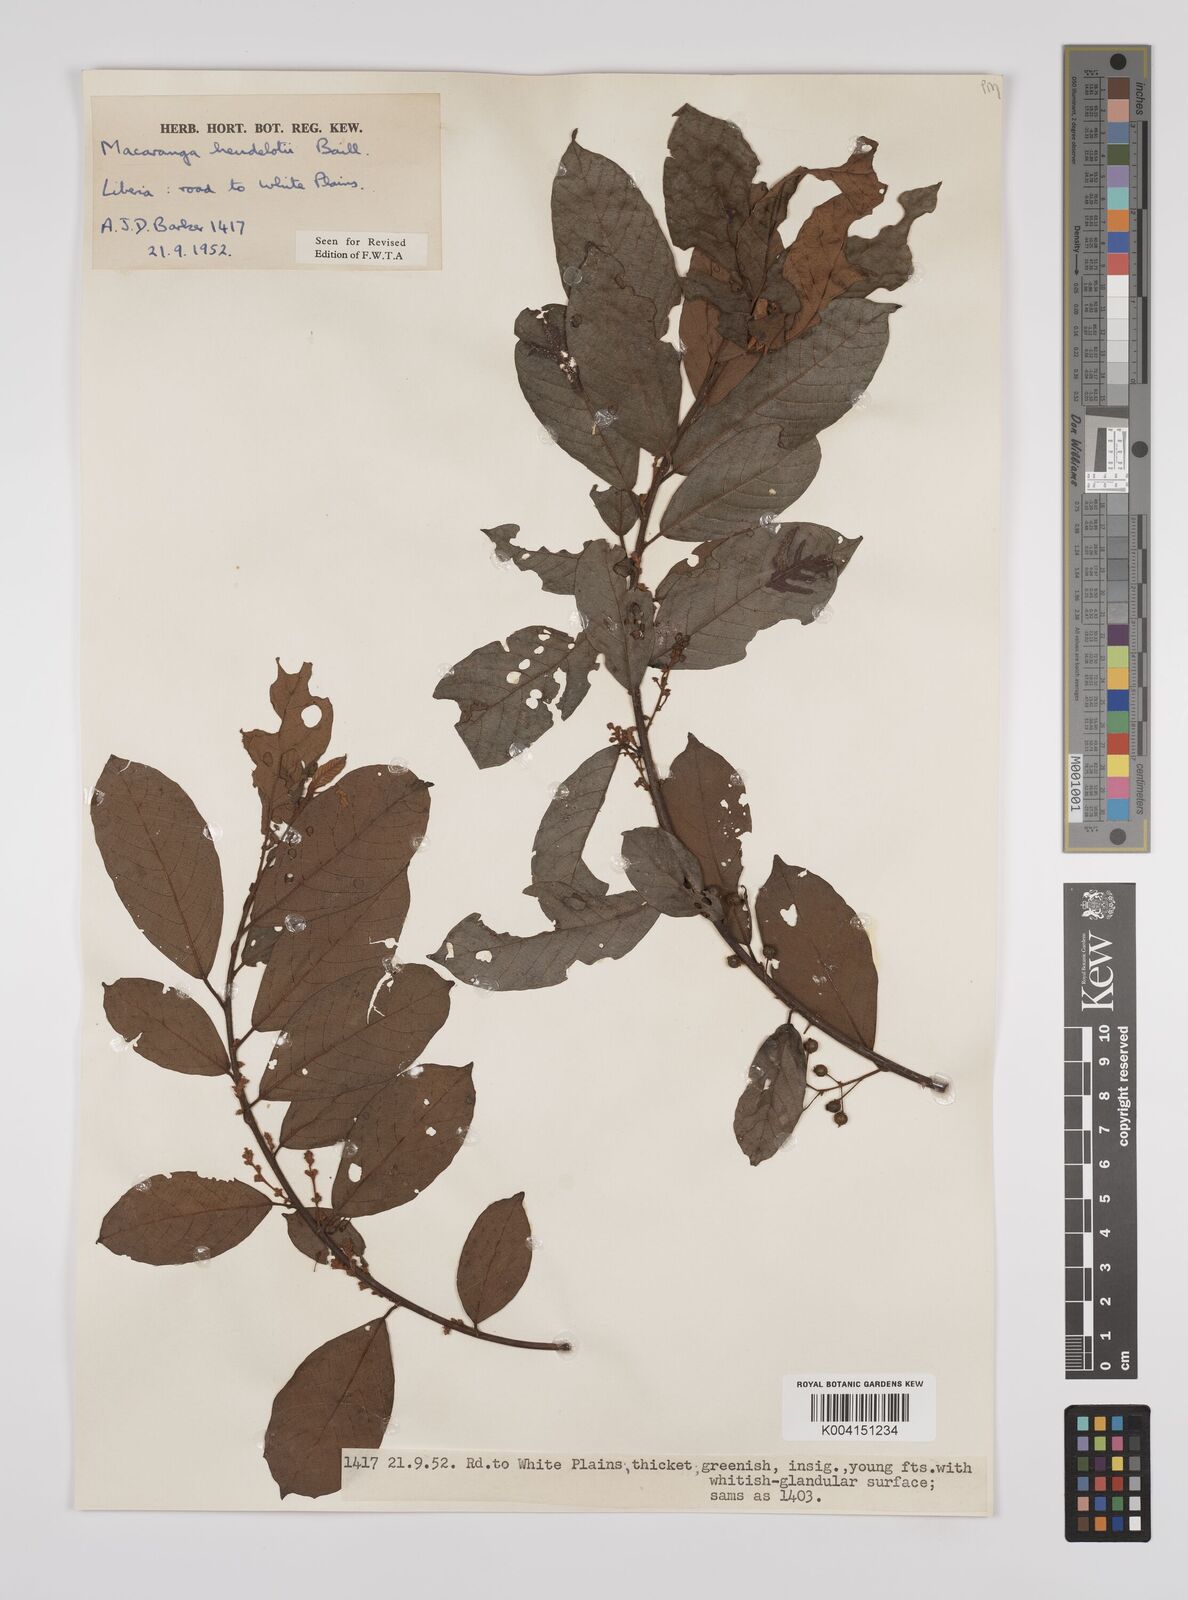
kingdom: Plantae
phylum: Tracheophyta
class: Magnoliopsida
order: Malpighiales
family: Euphorbiaceae
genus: Macaranga
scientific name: Macaranga heudelotii
